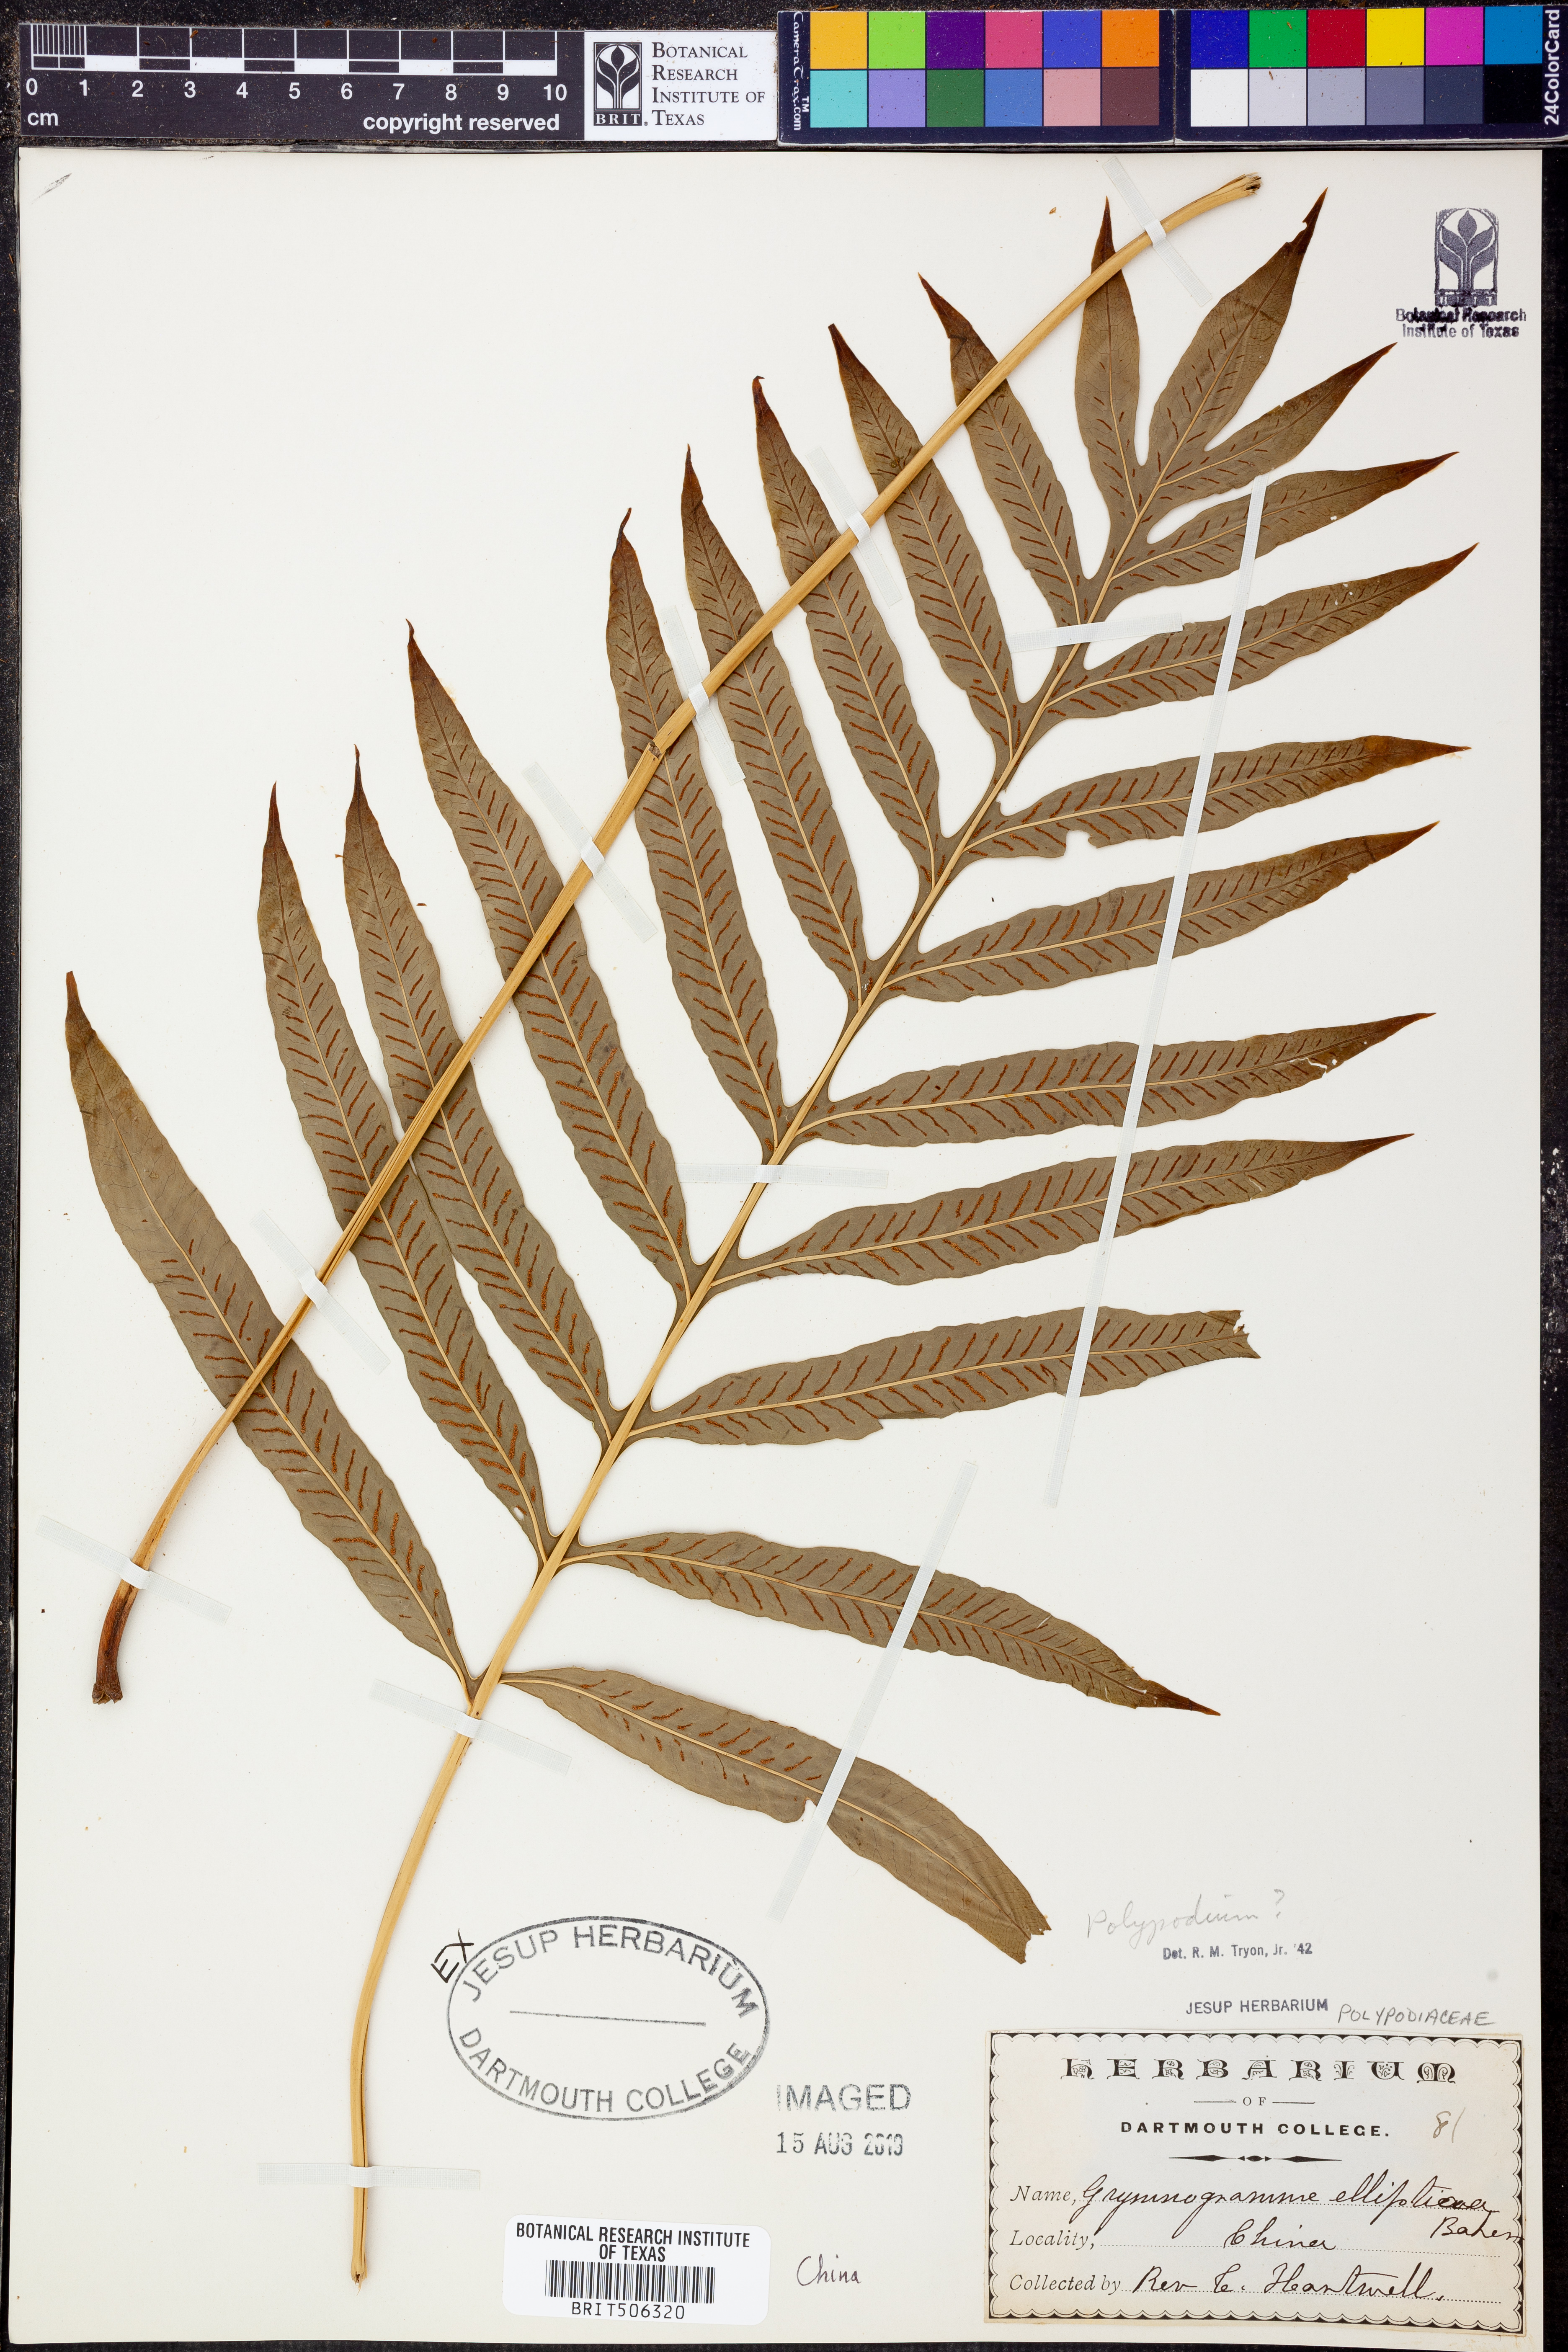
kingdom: Plantae
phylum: Tracheophyta
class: Polypodiopsida
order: Polypodiales
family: Polypodiaceae
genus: Polypodium
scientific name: Polypodium
